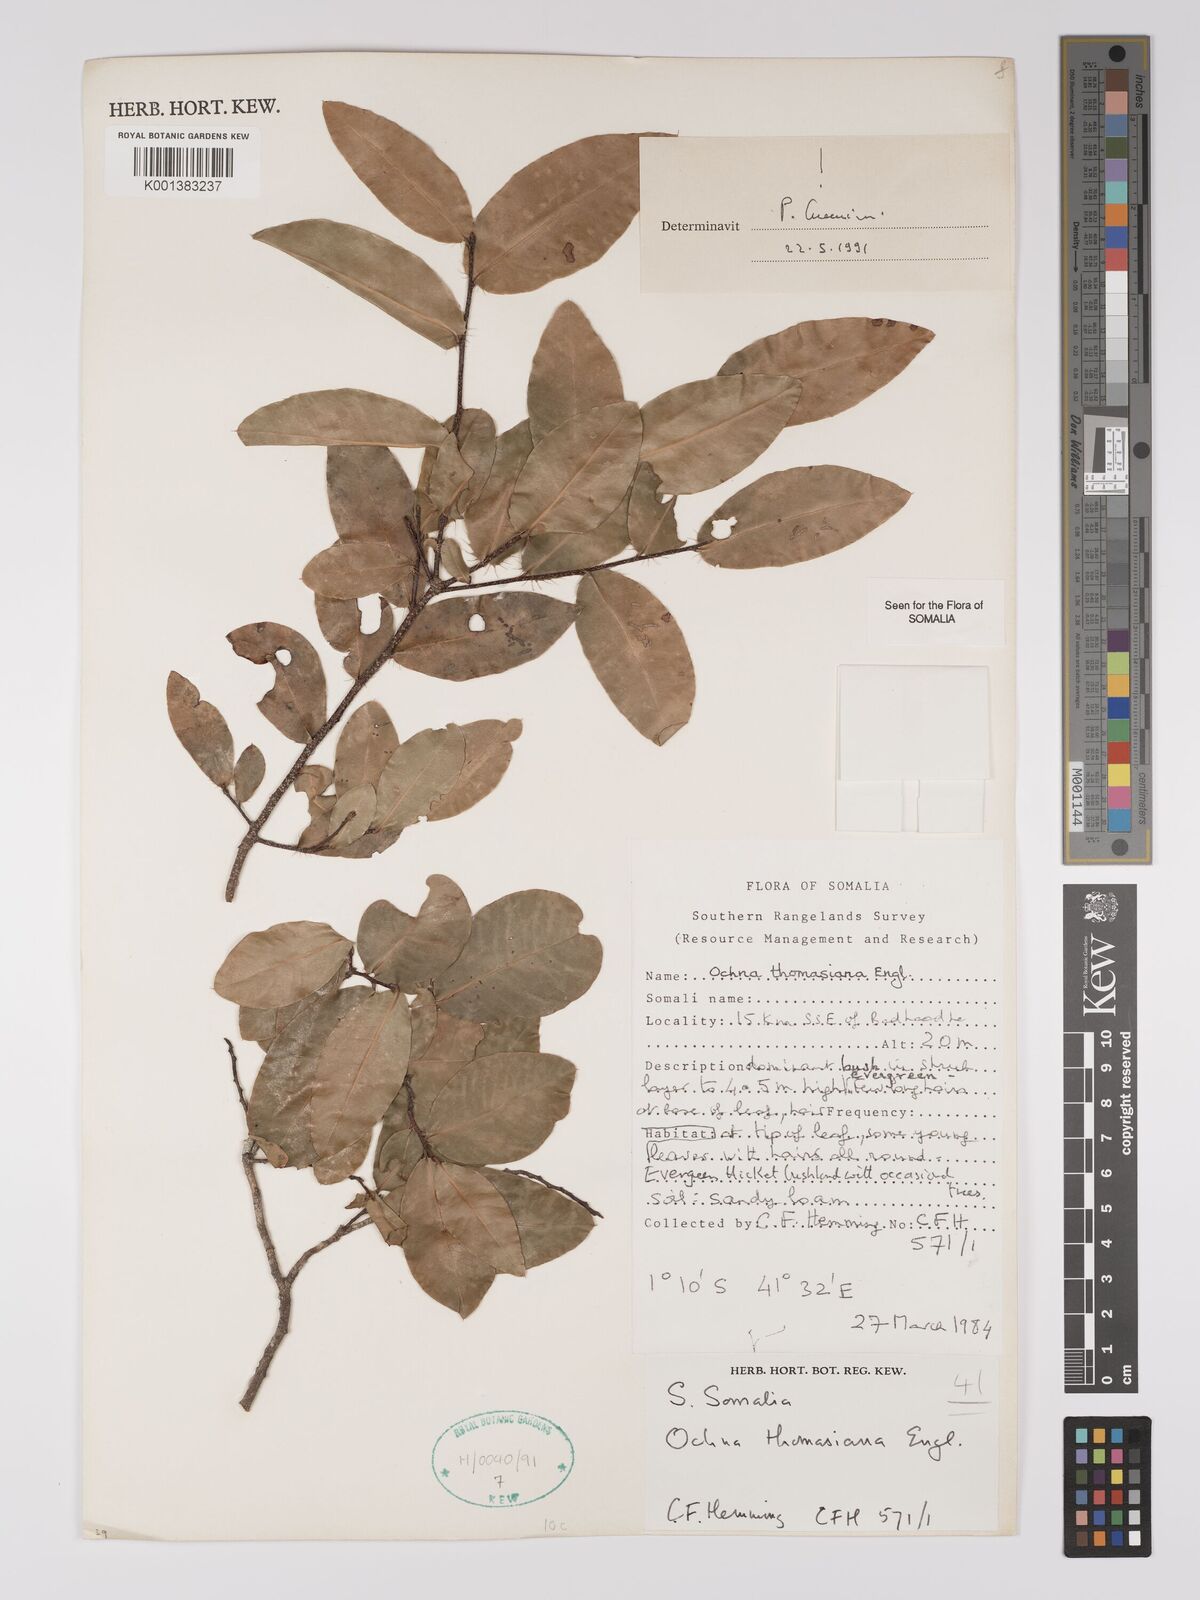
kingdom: Plantae
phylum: Tracheophyta
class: Magnoliopsida
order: Malpighiales
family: Ochnaceae
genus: Ochna
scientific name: Ochna thomasiana
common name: Thomas' bird's-eye bush
